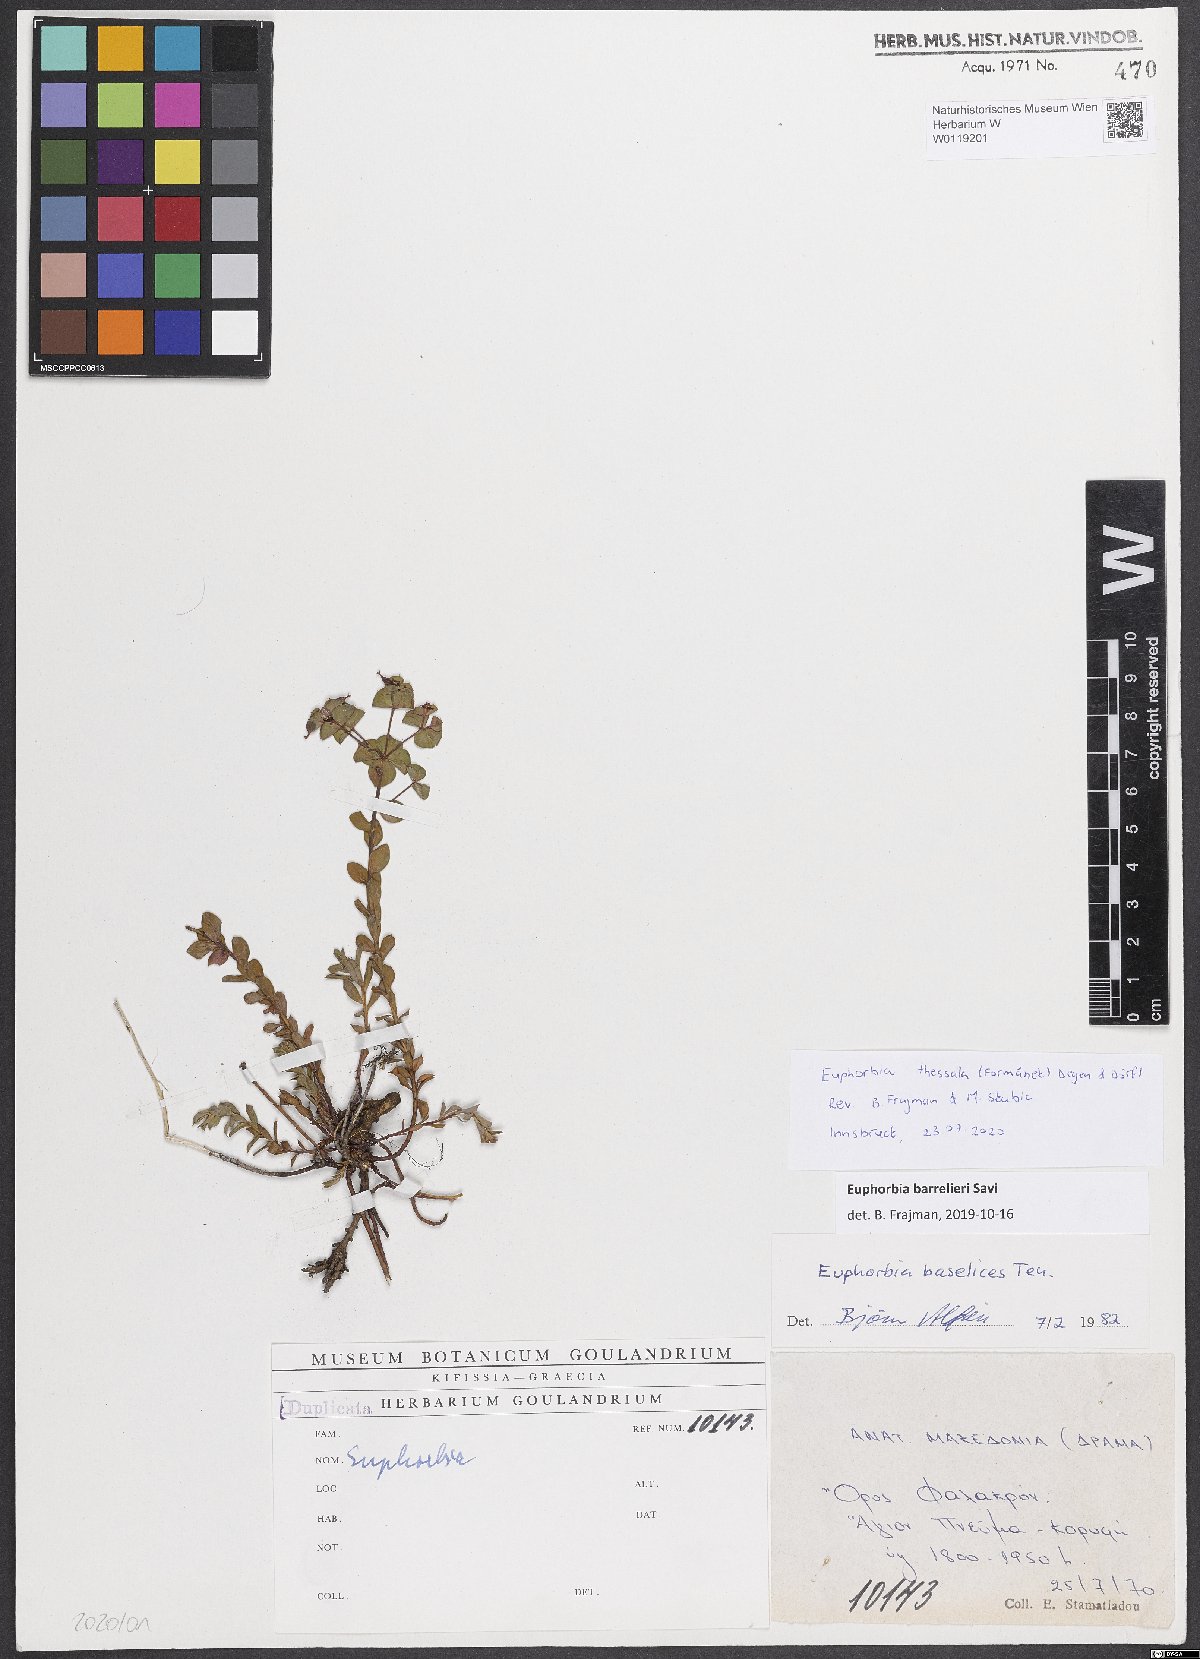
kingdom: Plantae
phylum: Tracheophyta
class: Magnoliopsida
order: Malpighiales
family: Euphorbiaceae
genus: Euphorbia
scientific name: Euphorbia barrelieri
